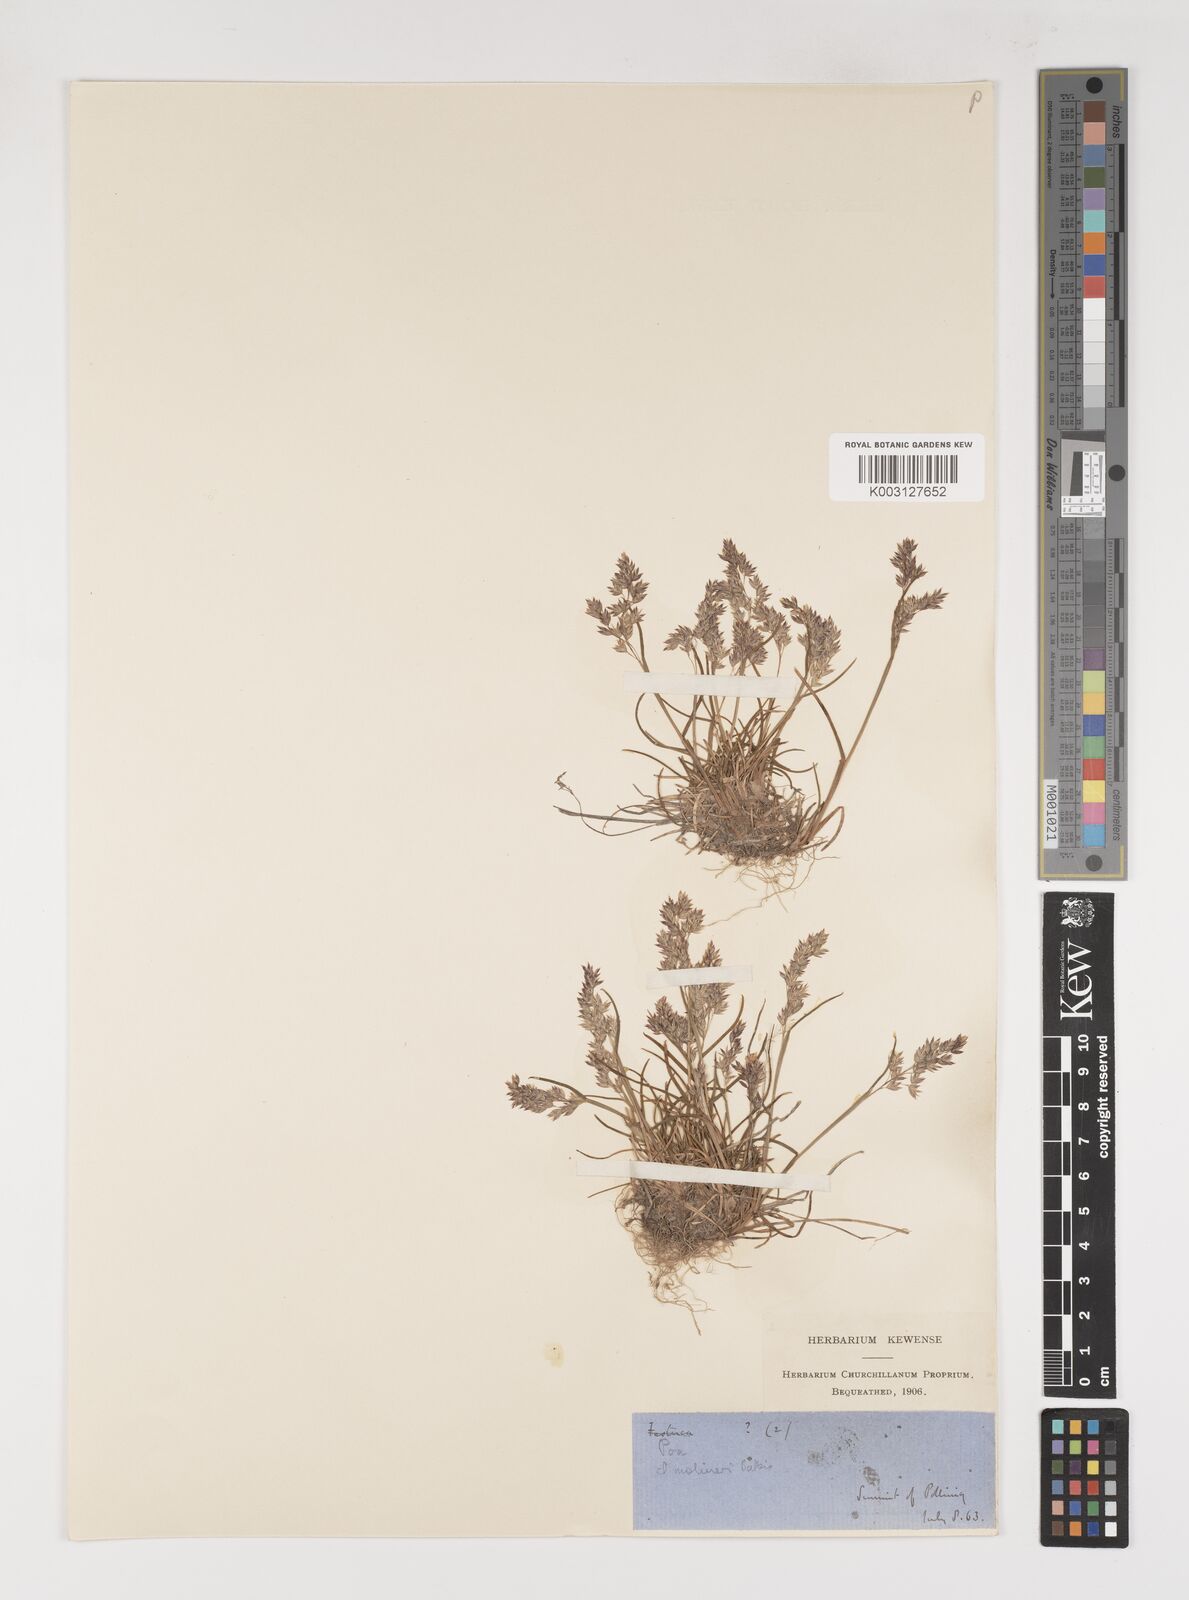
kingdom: Plantae
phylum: Tracheophyta
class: Liliopsida
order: Poales
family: Poaceae
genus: Poa
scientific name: Poa
